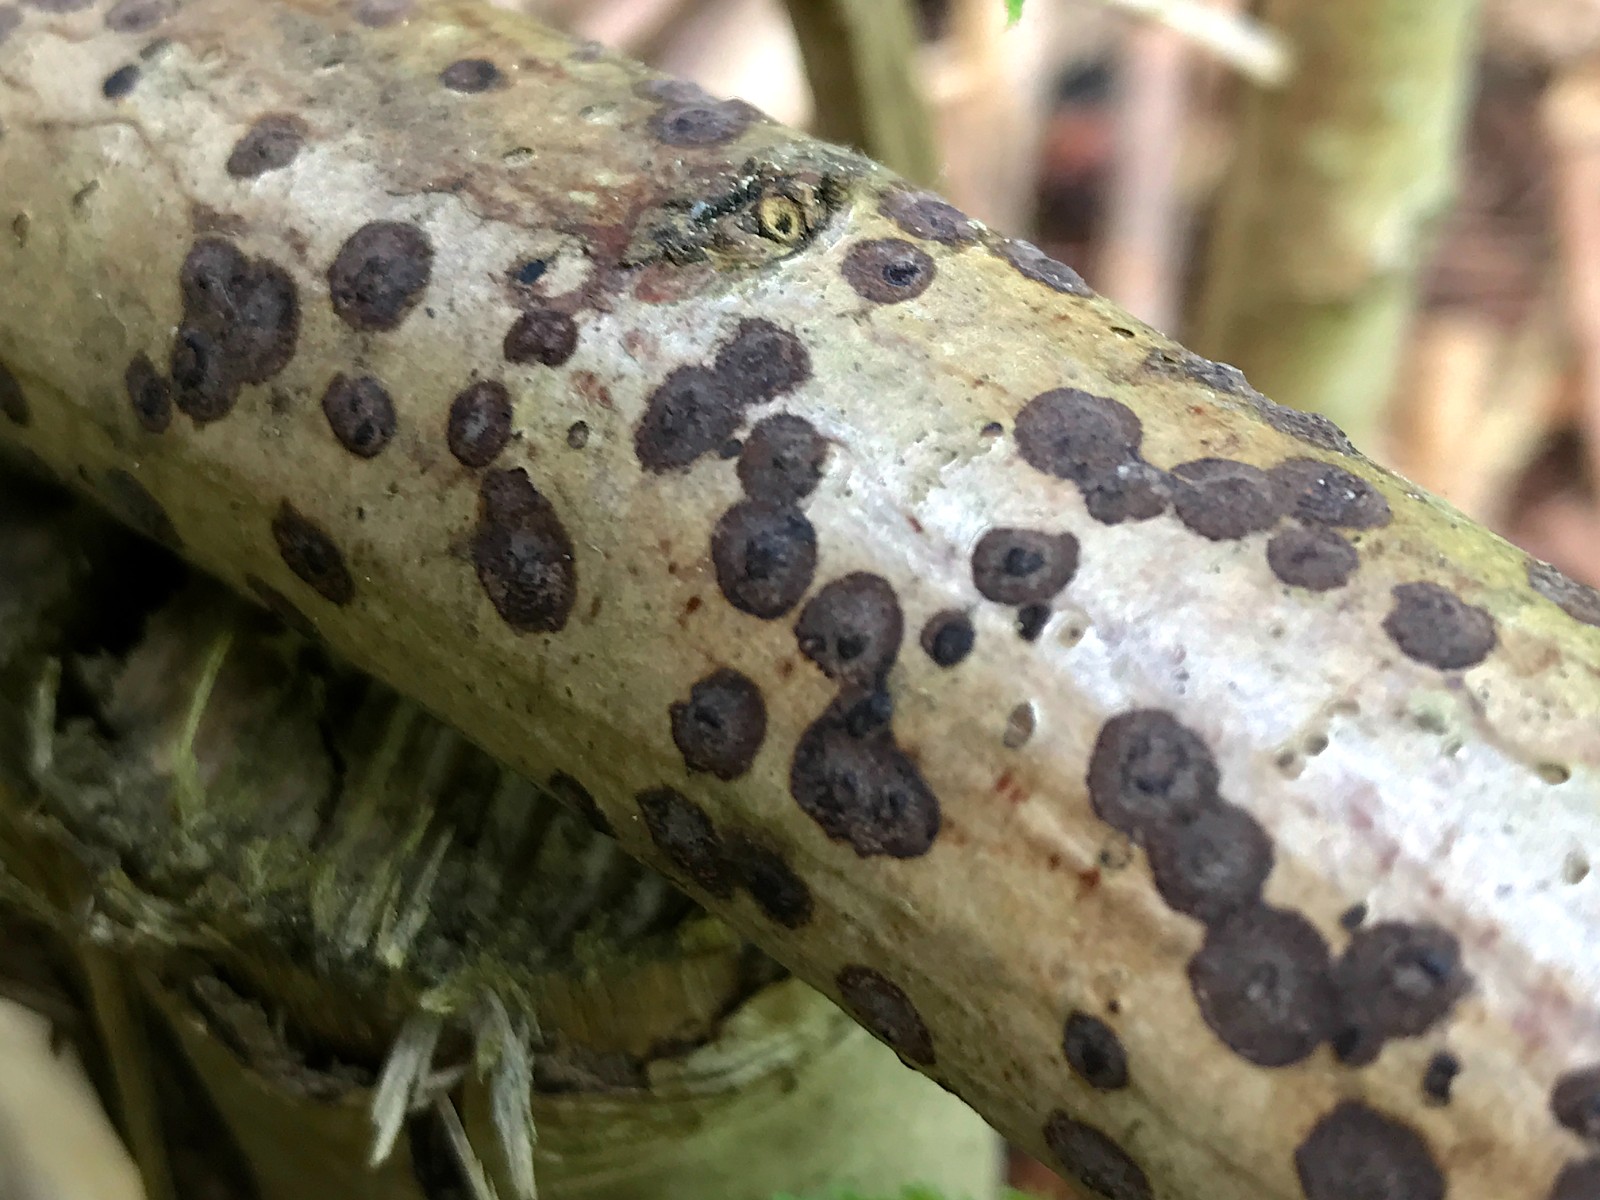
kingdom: Fungi
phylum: Ascomycota
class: Sordariomycetes
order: Xylariales
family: Hypoxylaceae
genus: Hypoxylon
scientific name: Hypoxylon fuscum
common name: kegleformet kulbær
